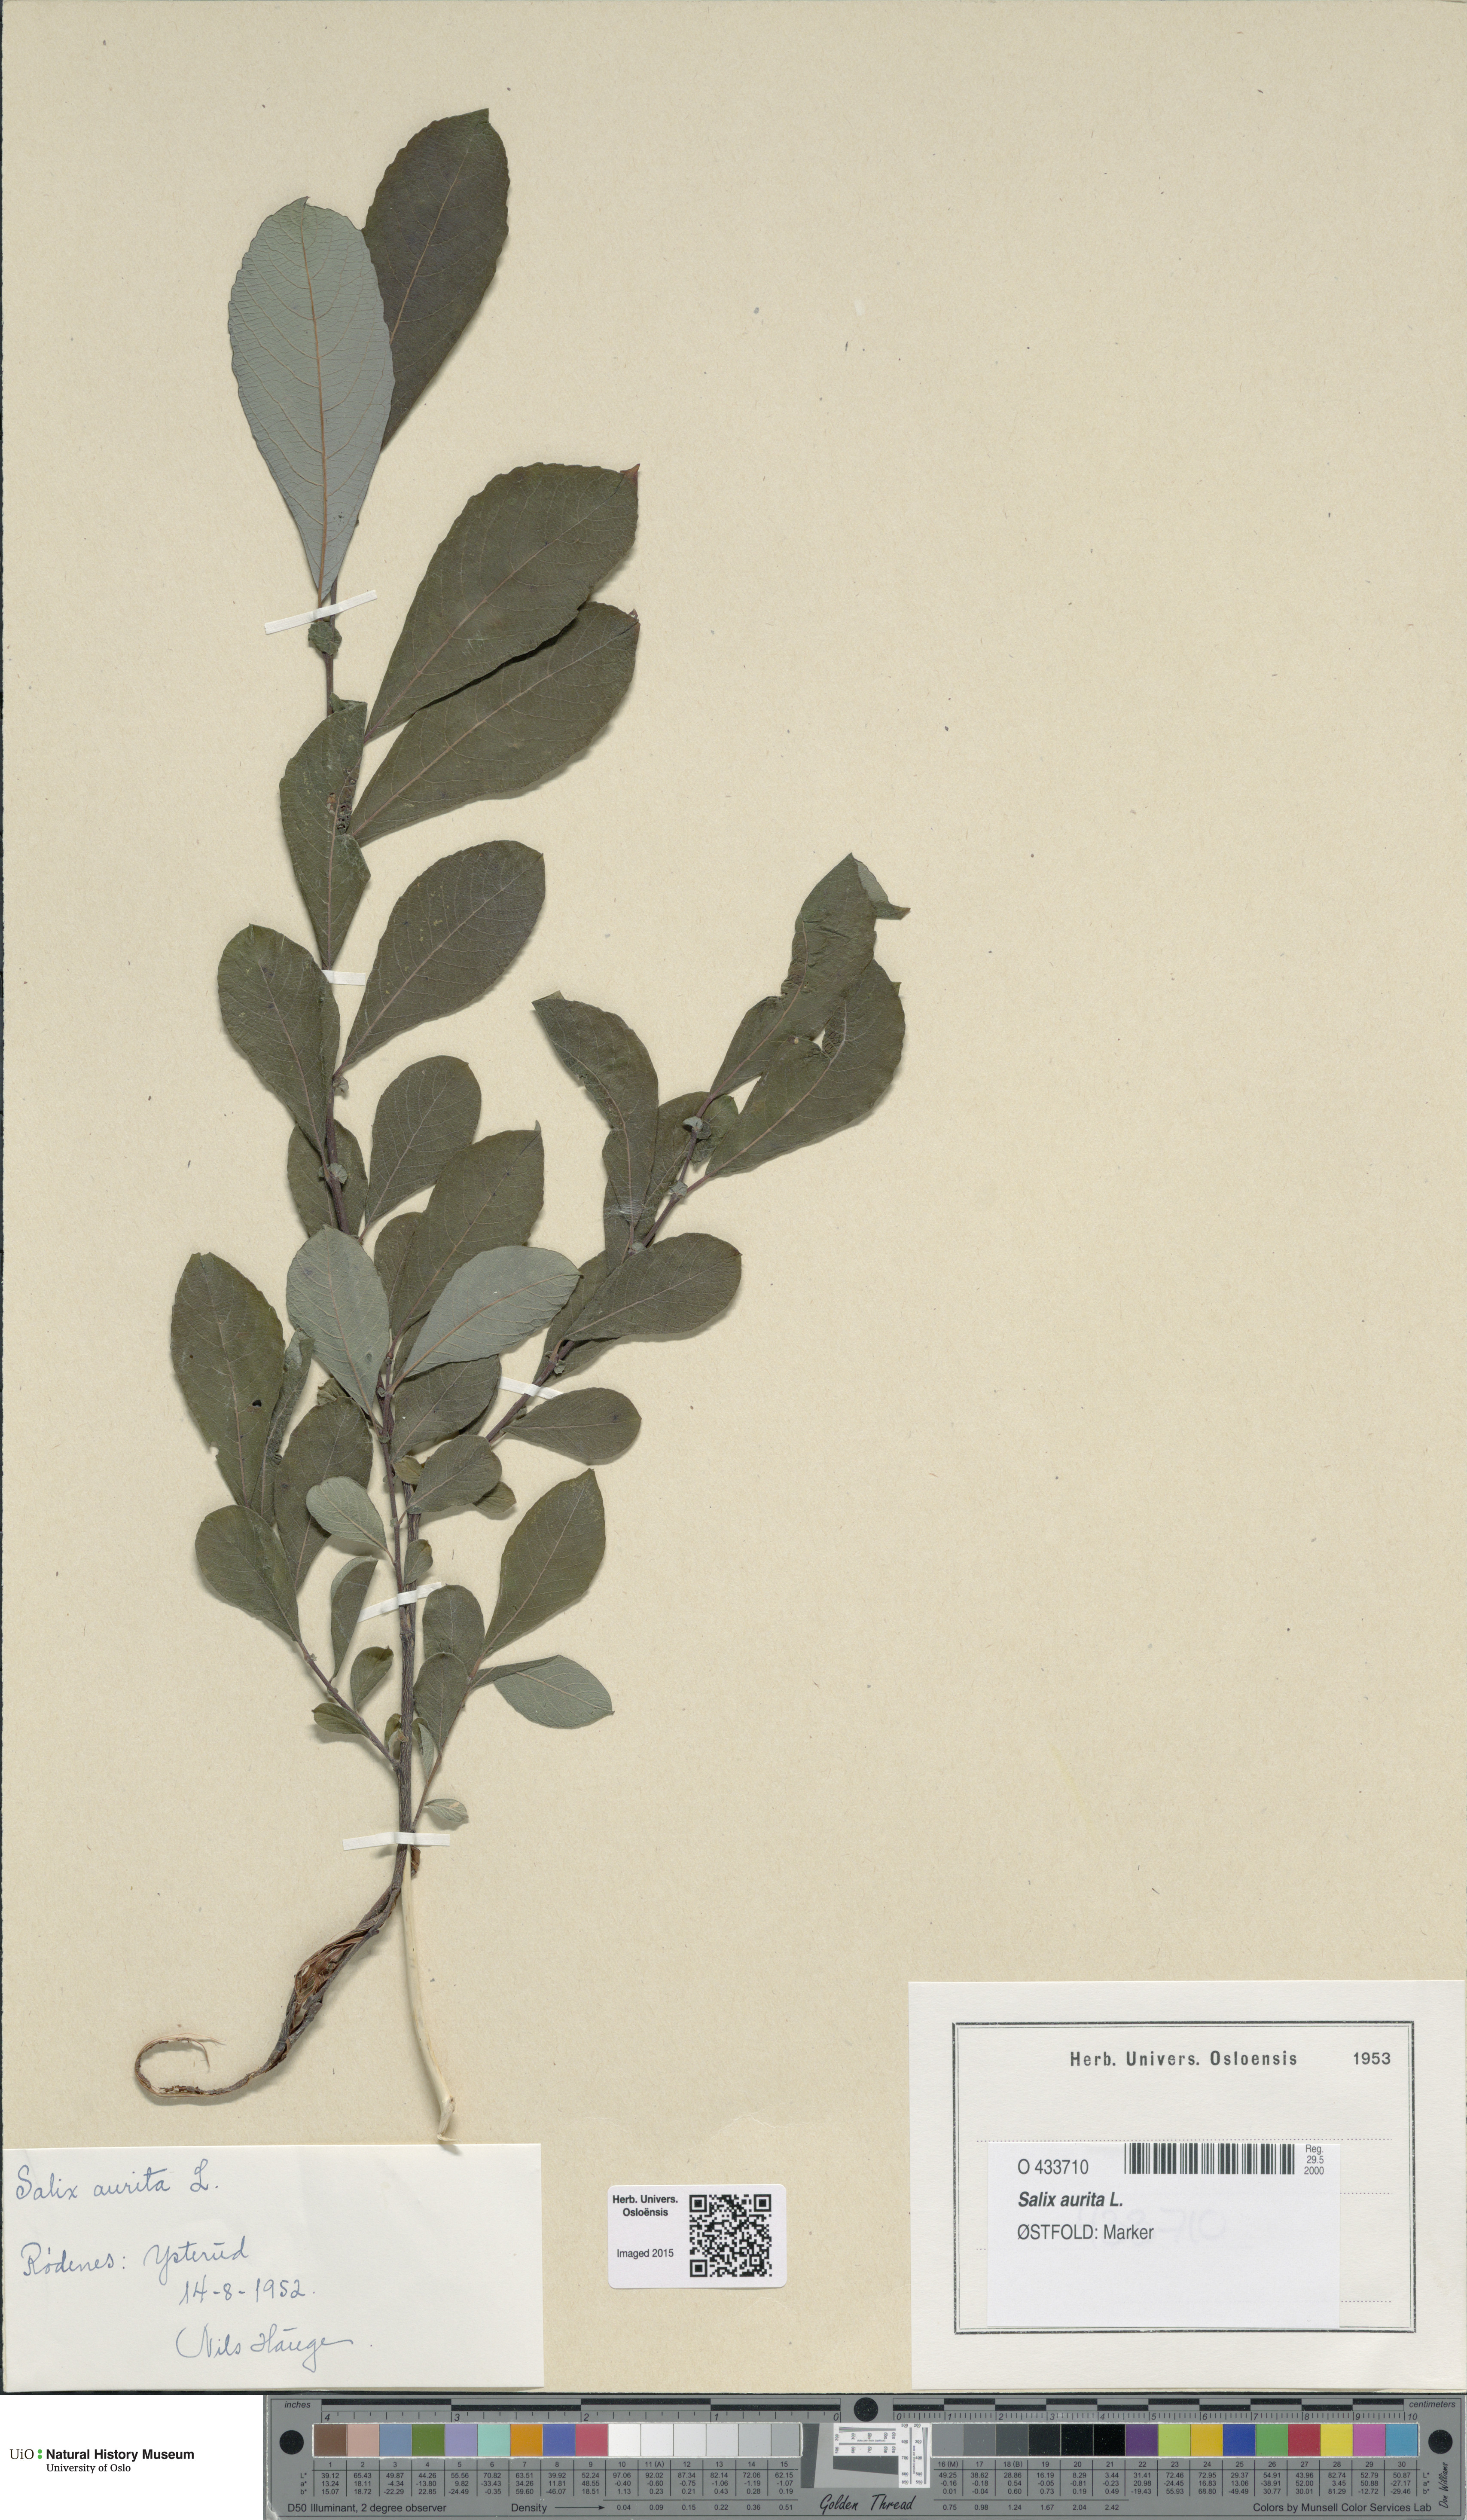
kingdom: Plantae
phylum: Tracheophyta
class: Magnoliopsida
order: Malpighiales
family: Salicaceae
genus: Salix
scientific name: Salix aurita
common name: Eared willow
